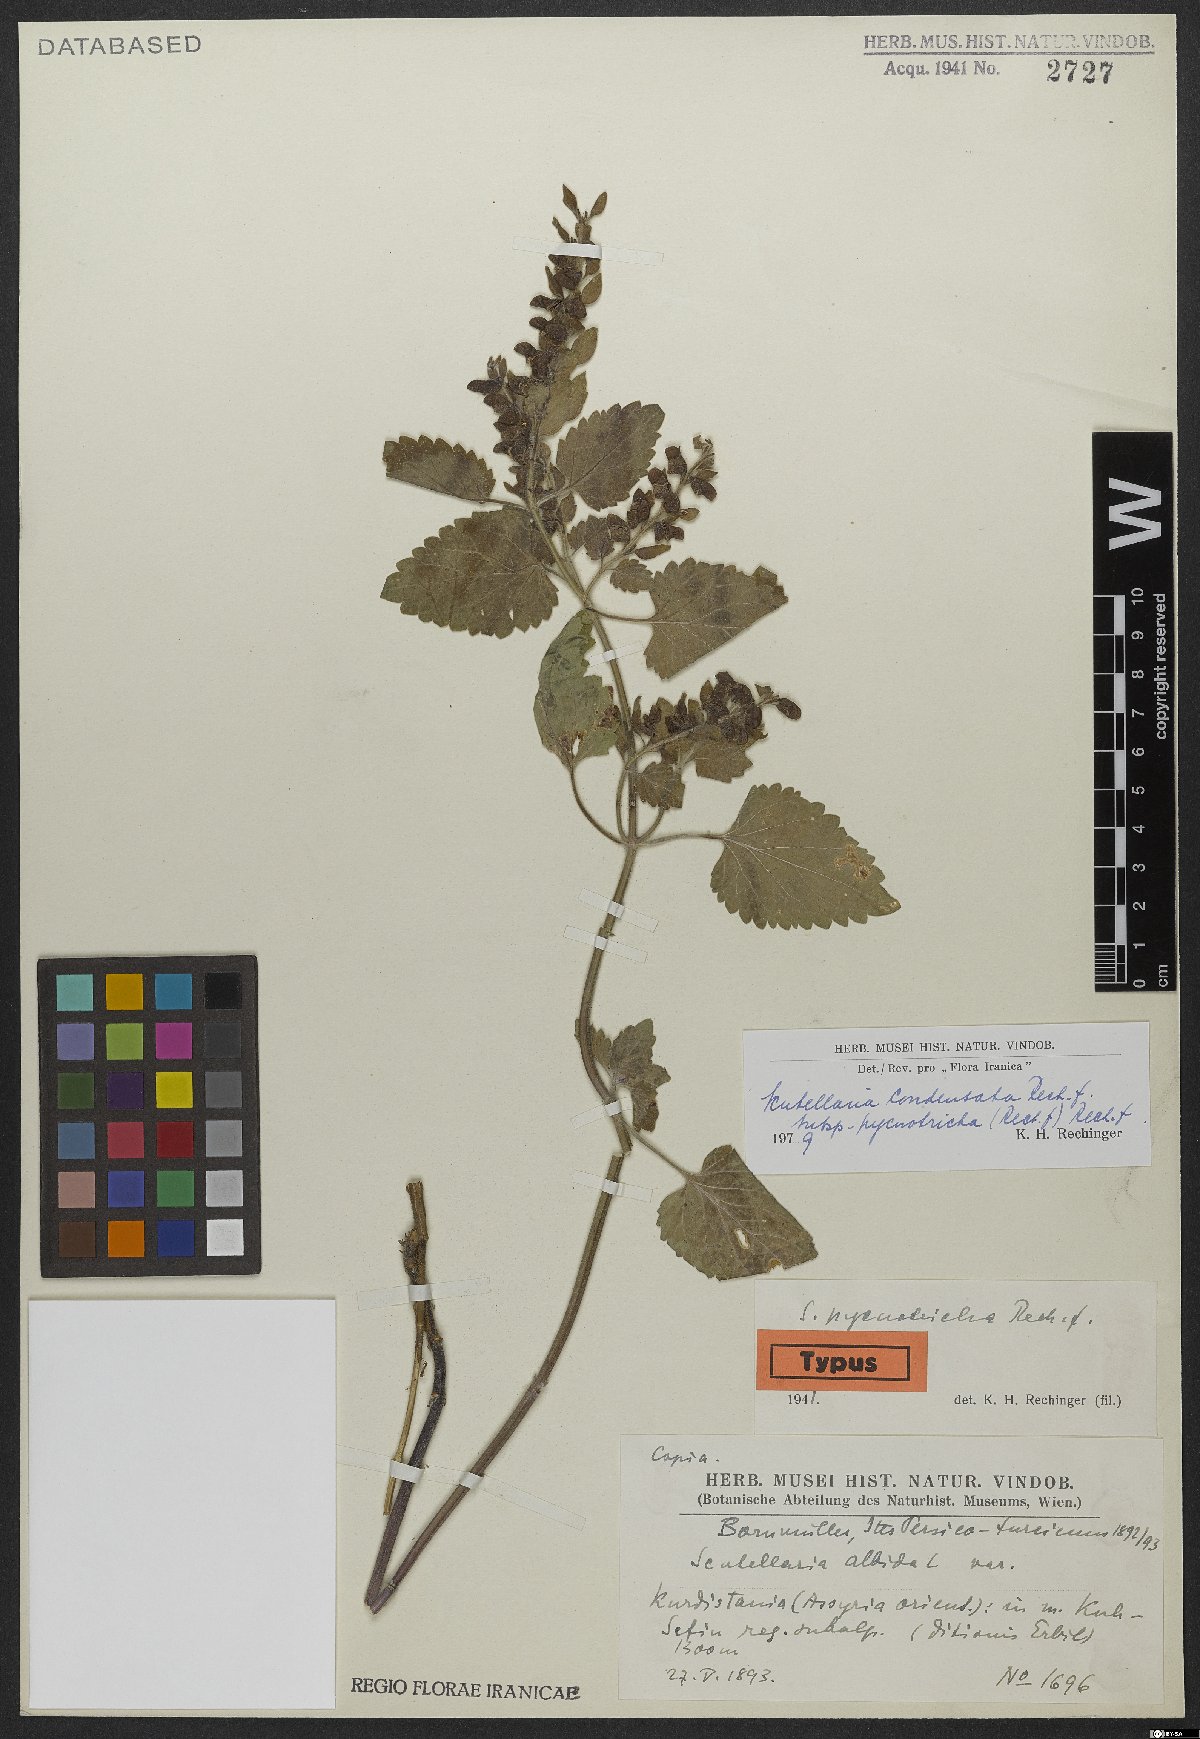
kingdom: Plantae
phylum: Tracheophyta
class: Magnoliopsida
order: Lamiales
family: Lamiaceae
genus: Scutellaria
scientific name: Scutellaria albida
